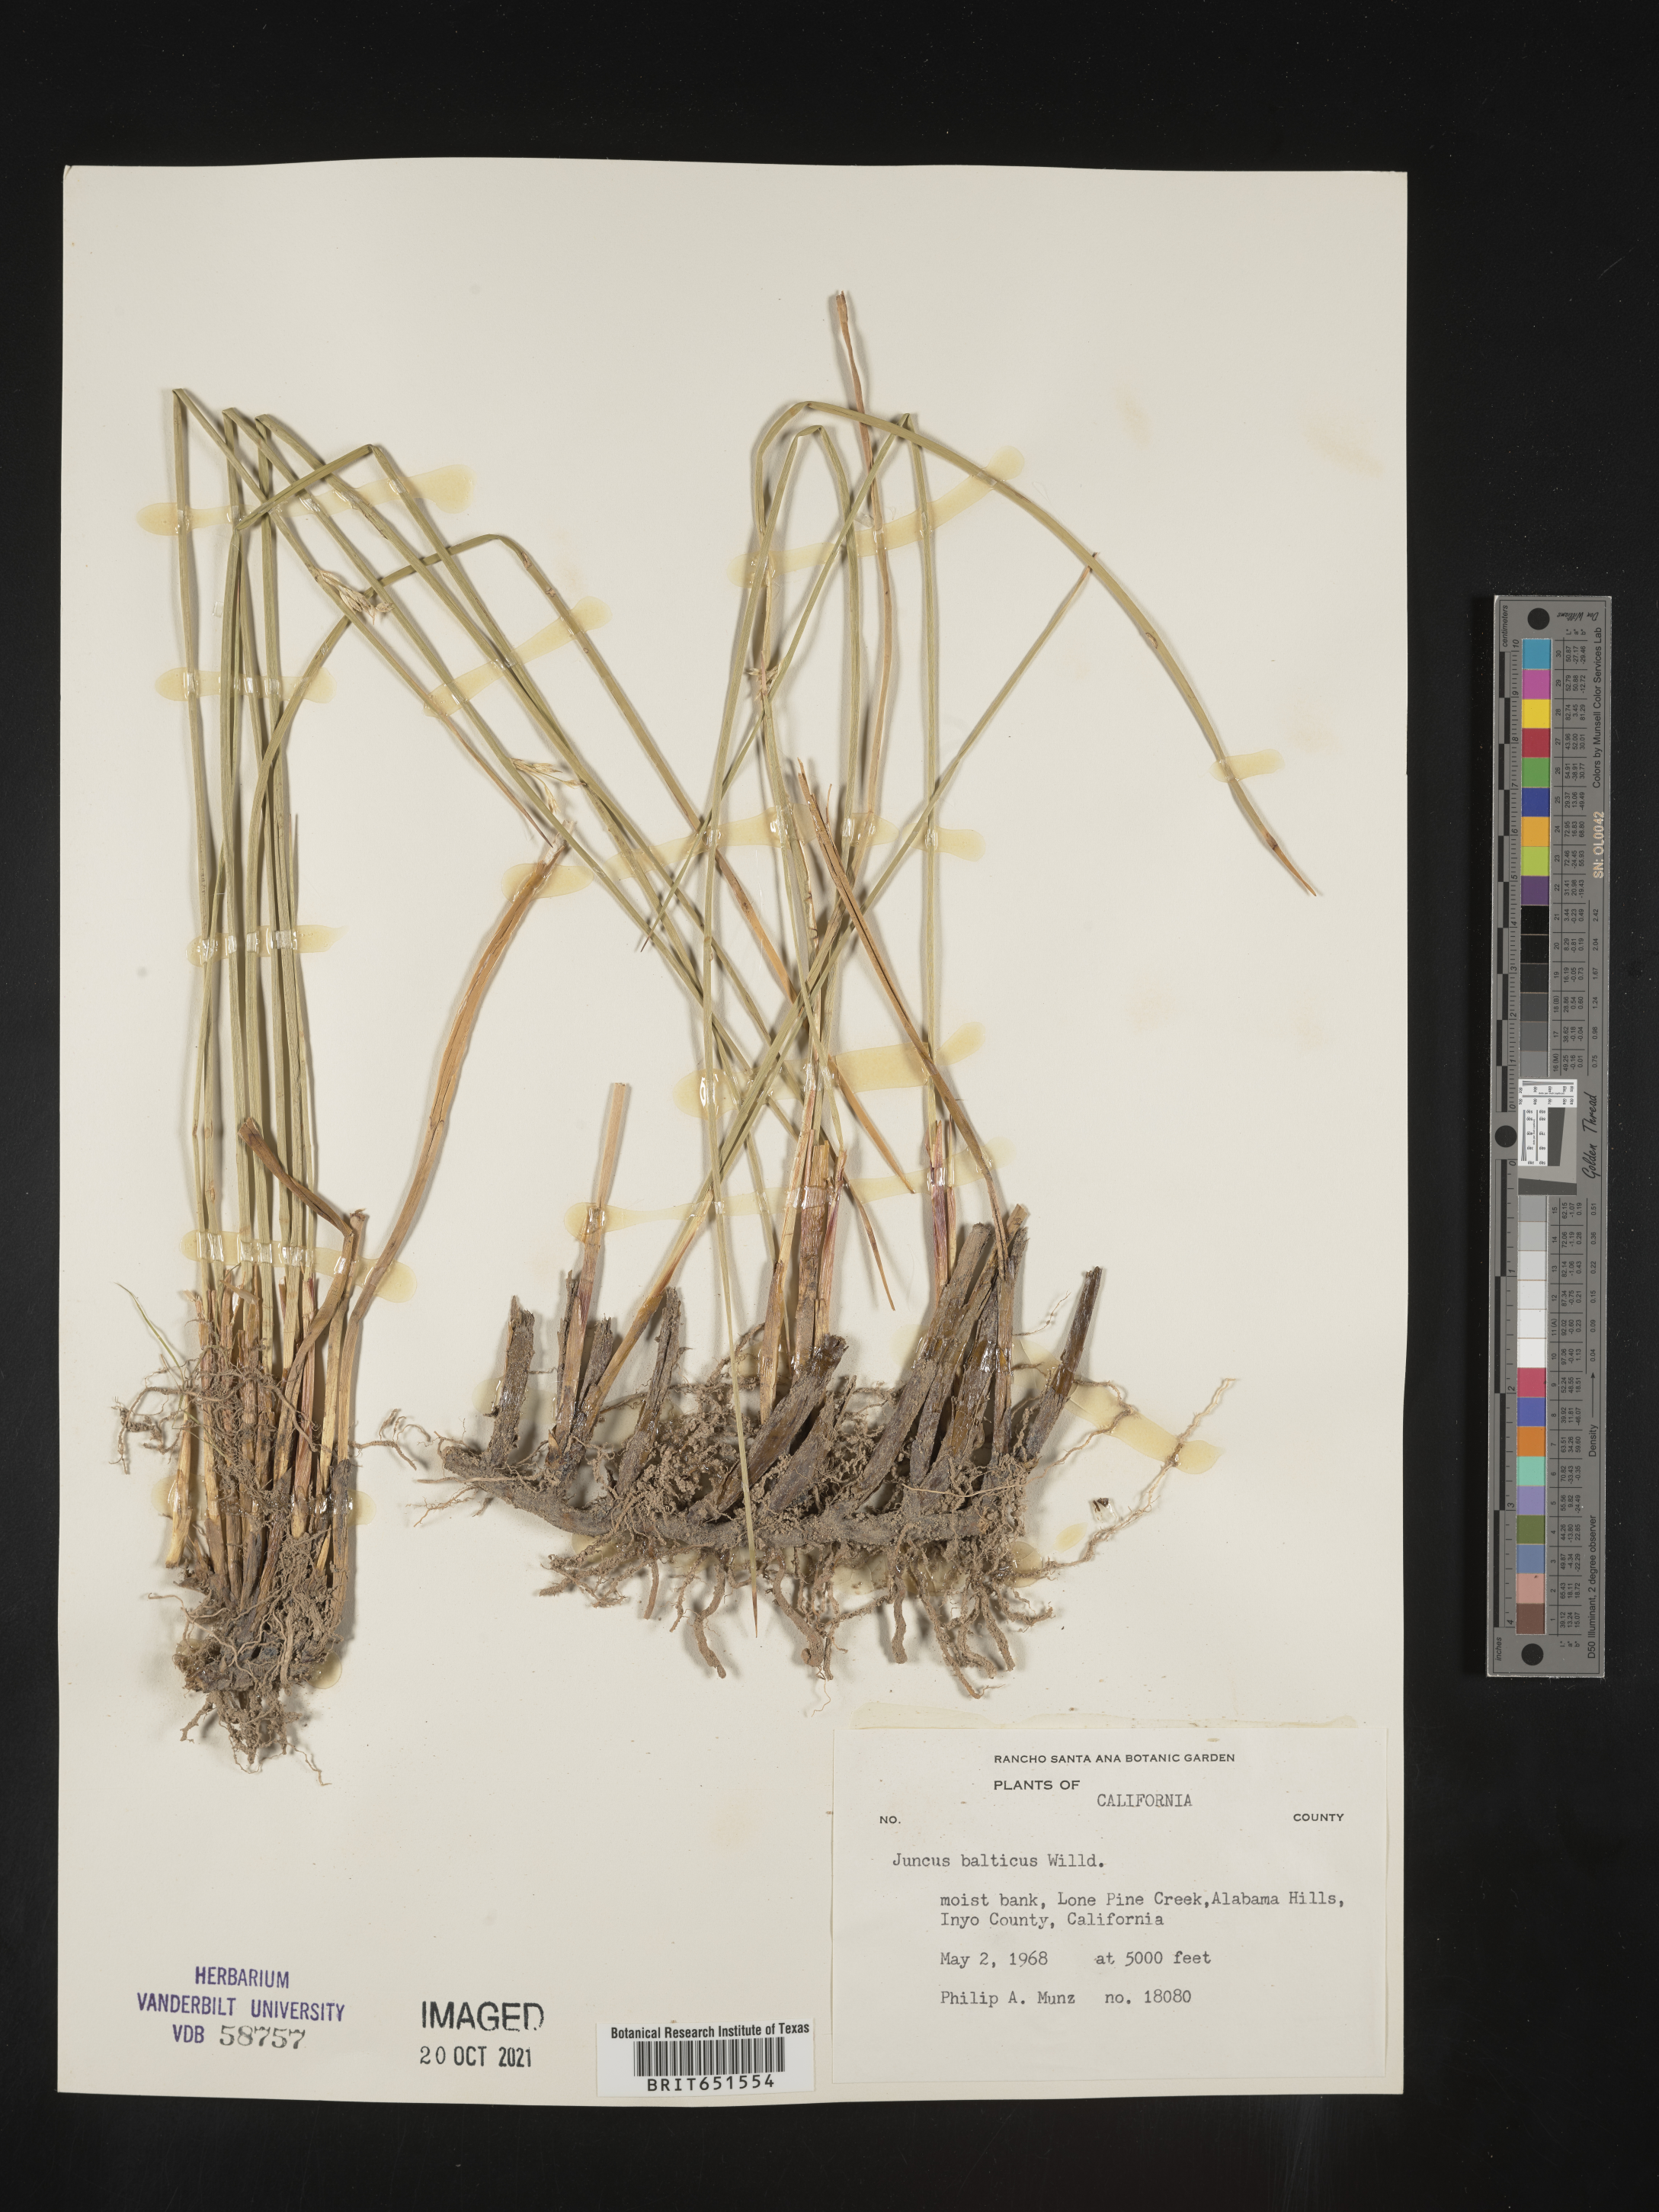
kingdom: Plantae
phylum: Tracheophyta
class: Liliopsida
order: Poales
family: Juncaceae
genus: Juncus
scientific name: Juncus balticus
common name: Baltic rush
